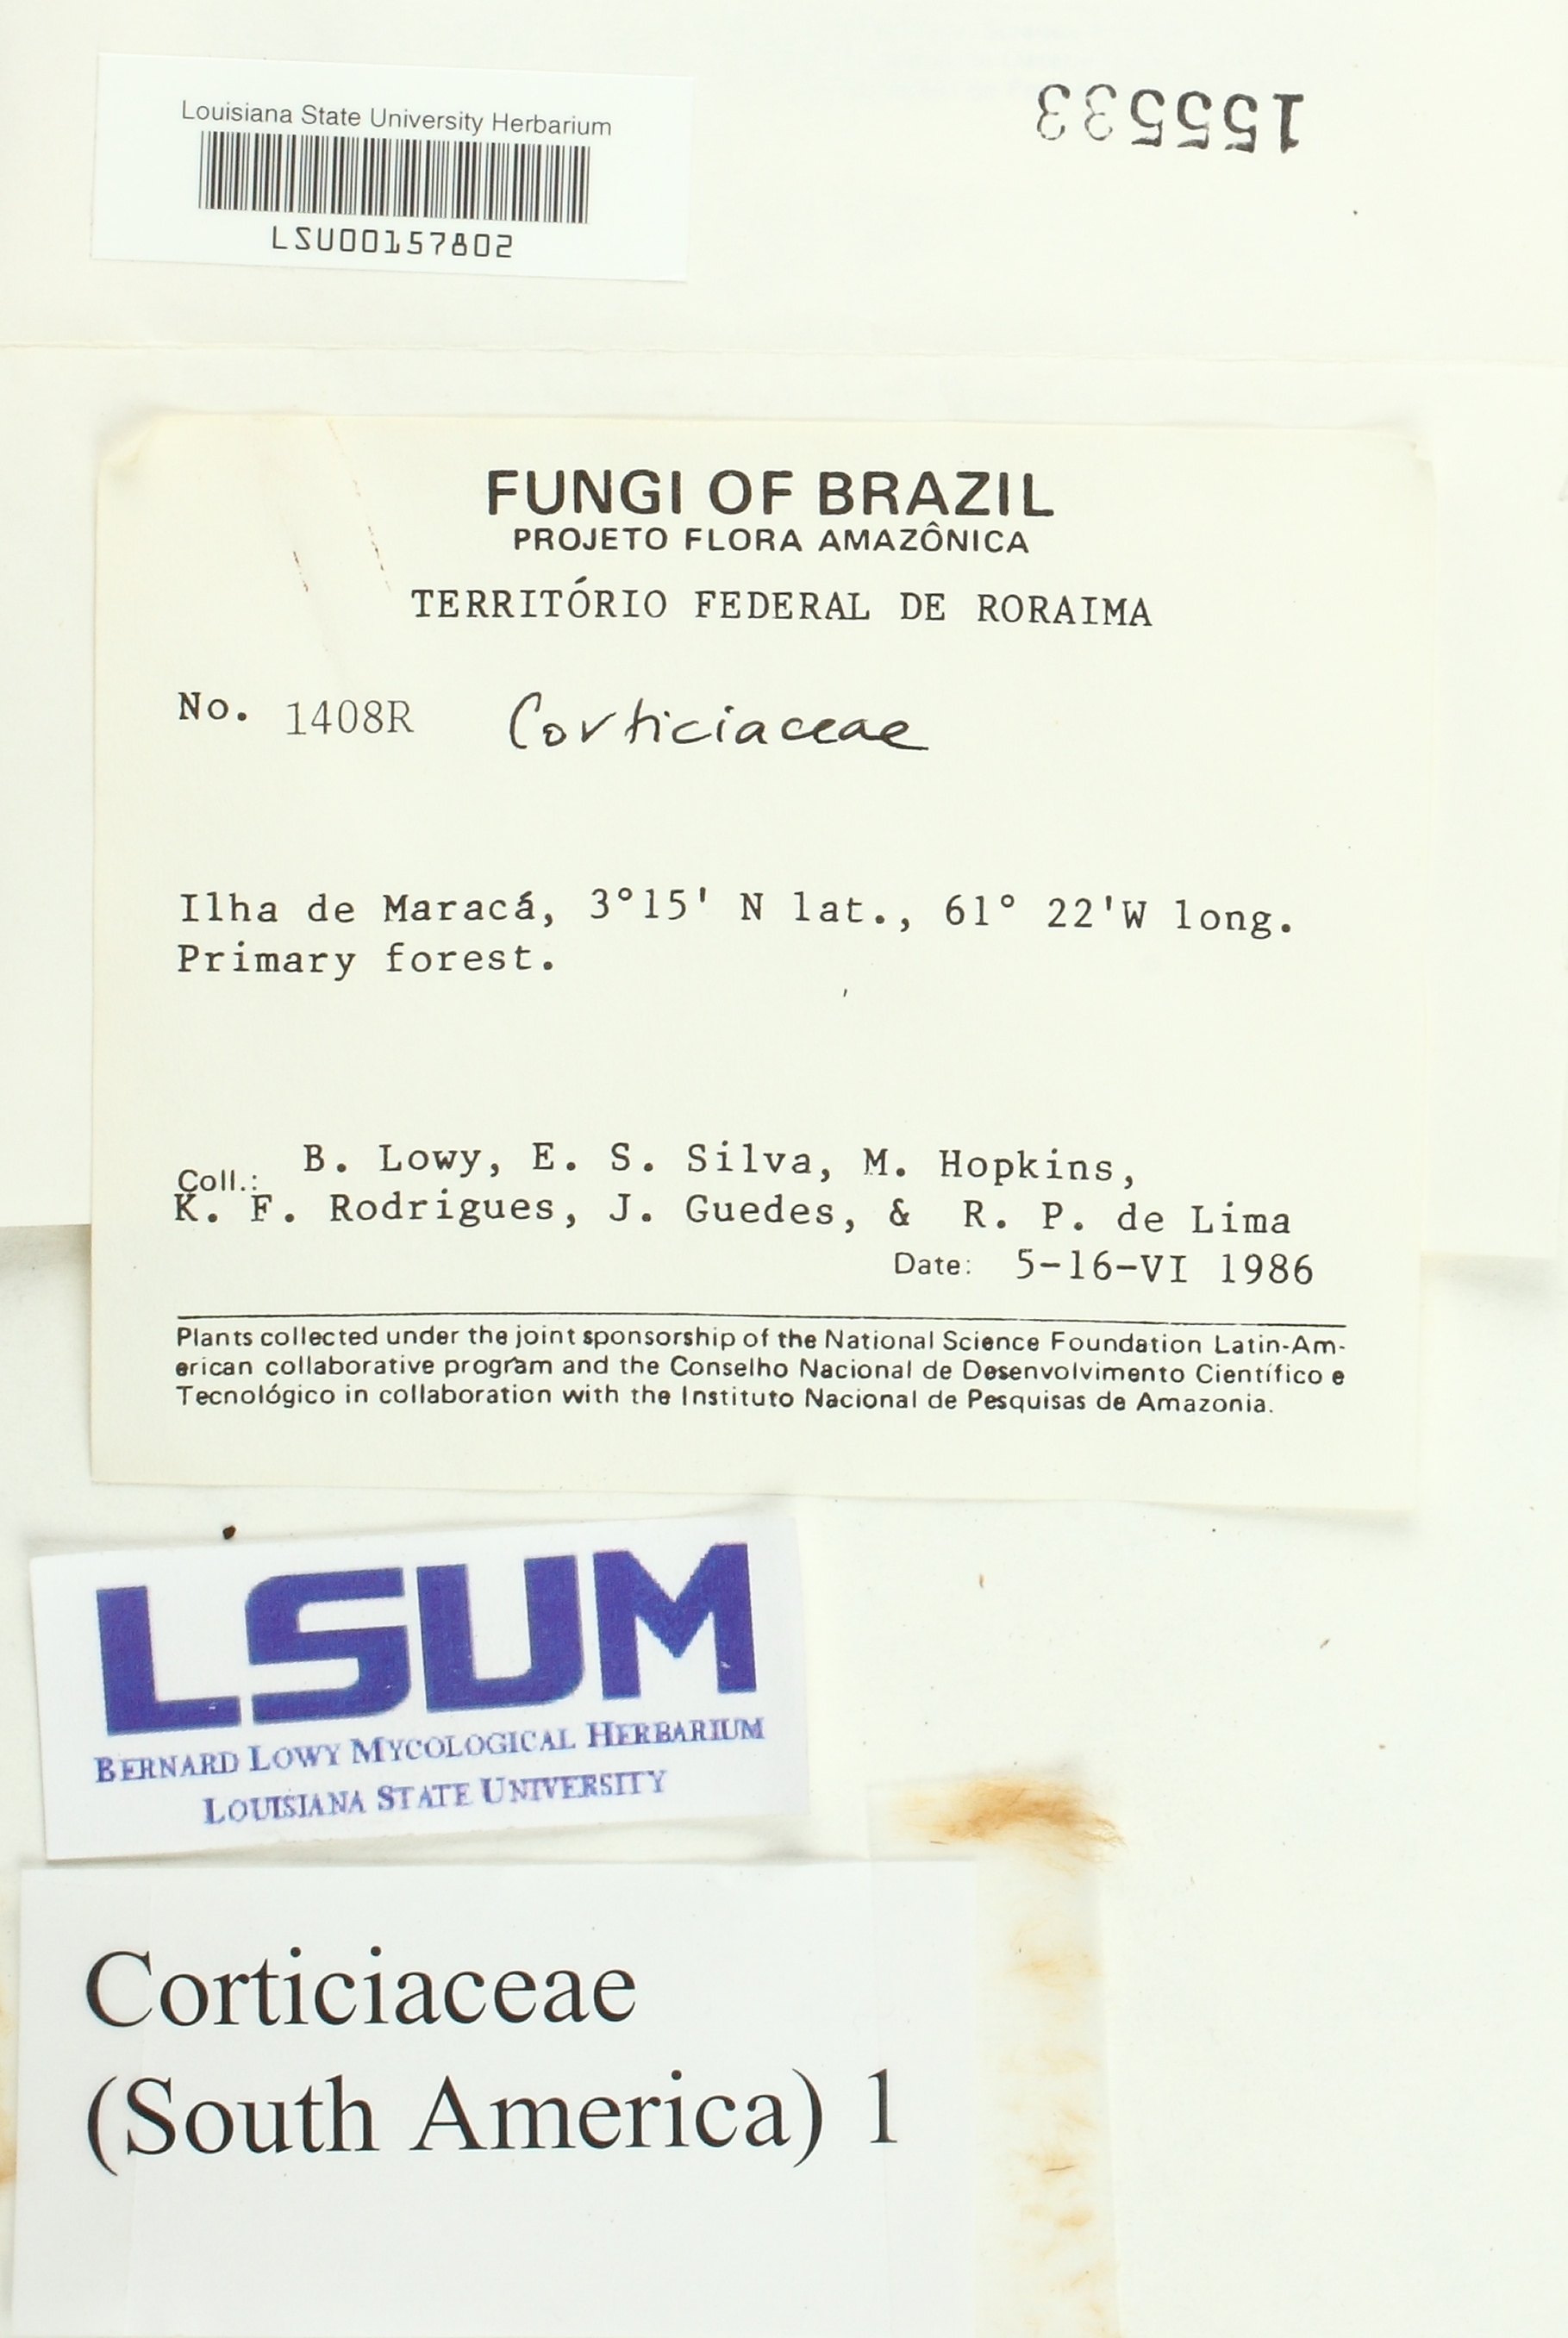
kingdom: Fungi
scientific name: Fungi
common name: Fungi
